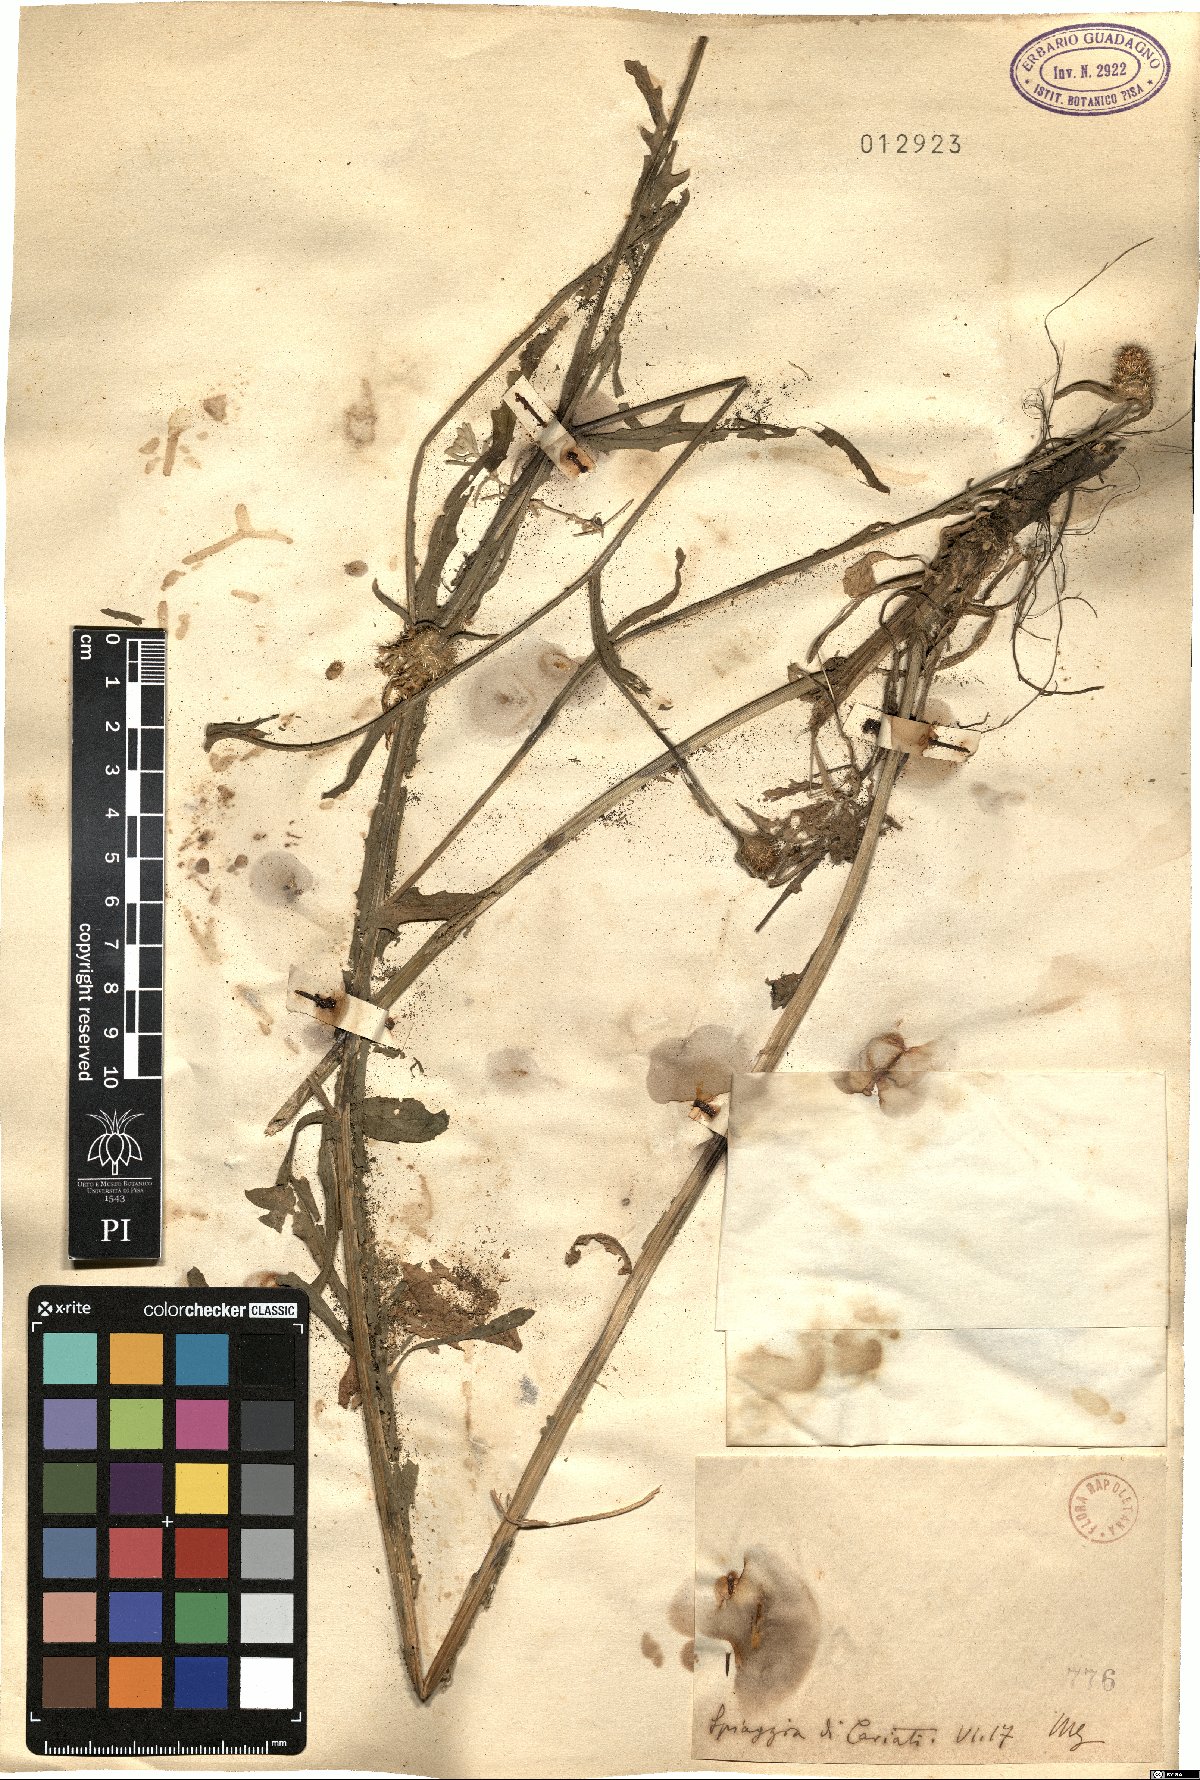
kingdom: Plantae
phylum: Tracheophyta
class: Magnoliopsida
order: Asterales
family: Asteraceae
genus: Centaurea
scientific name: Centaurea
